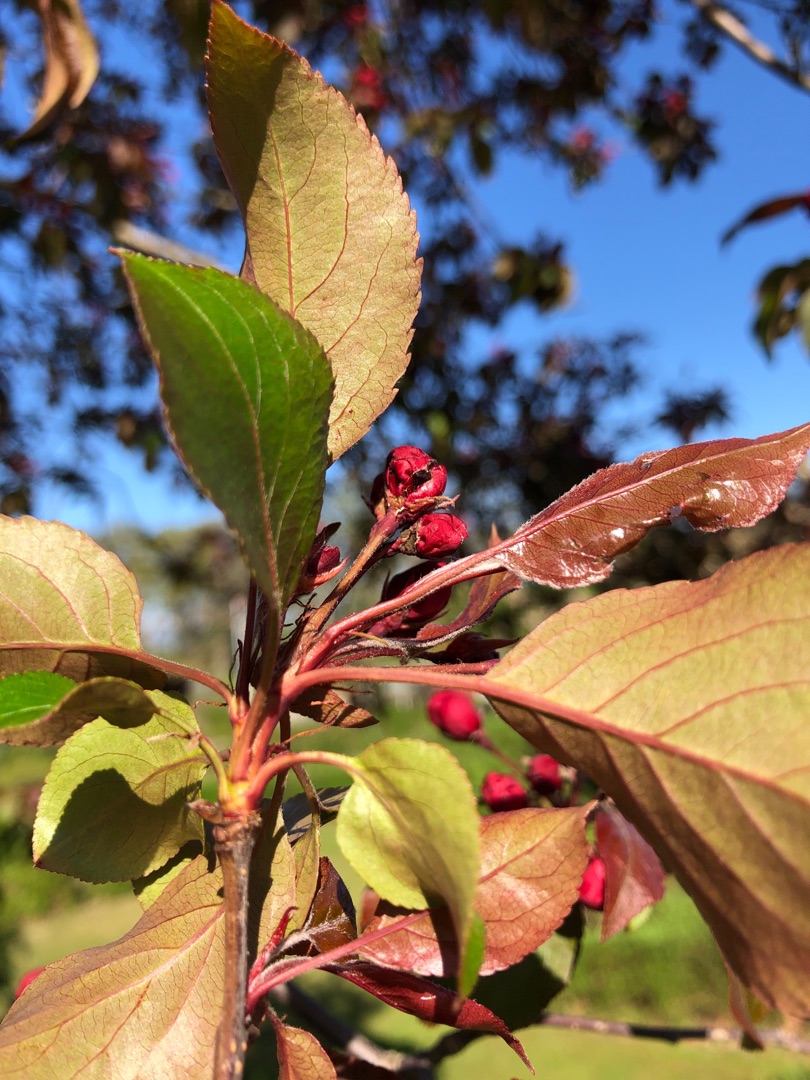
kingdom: Plantae
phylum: Tracheophyta
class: Magnoliopsida
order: Rosales
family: Rosaceae
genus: Malus
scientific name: Malus purpurea
